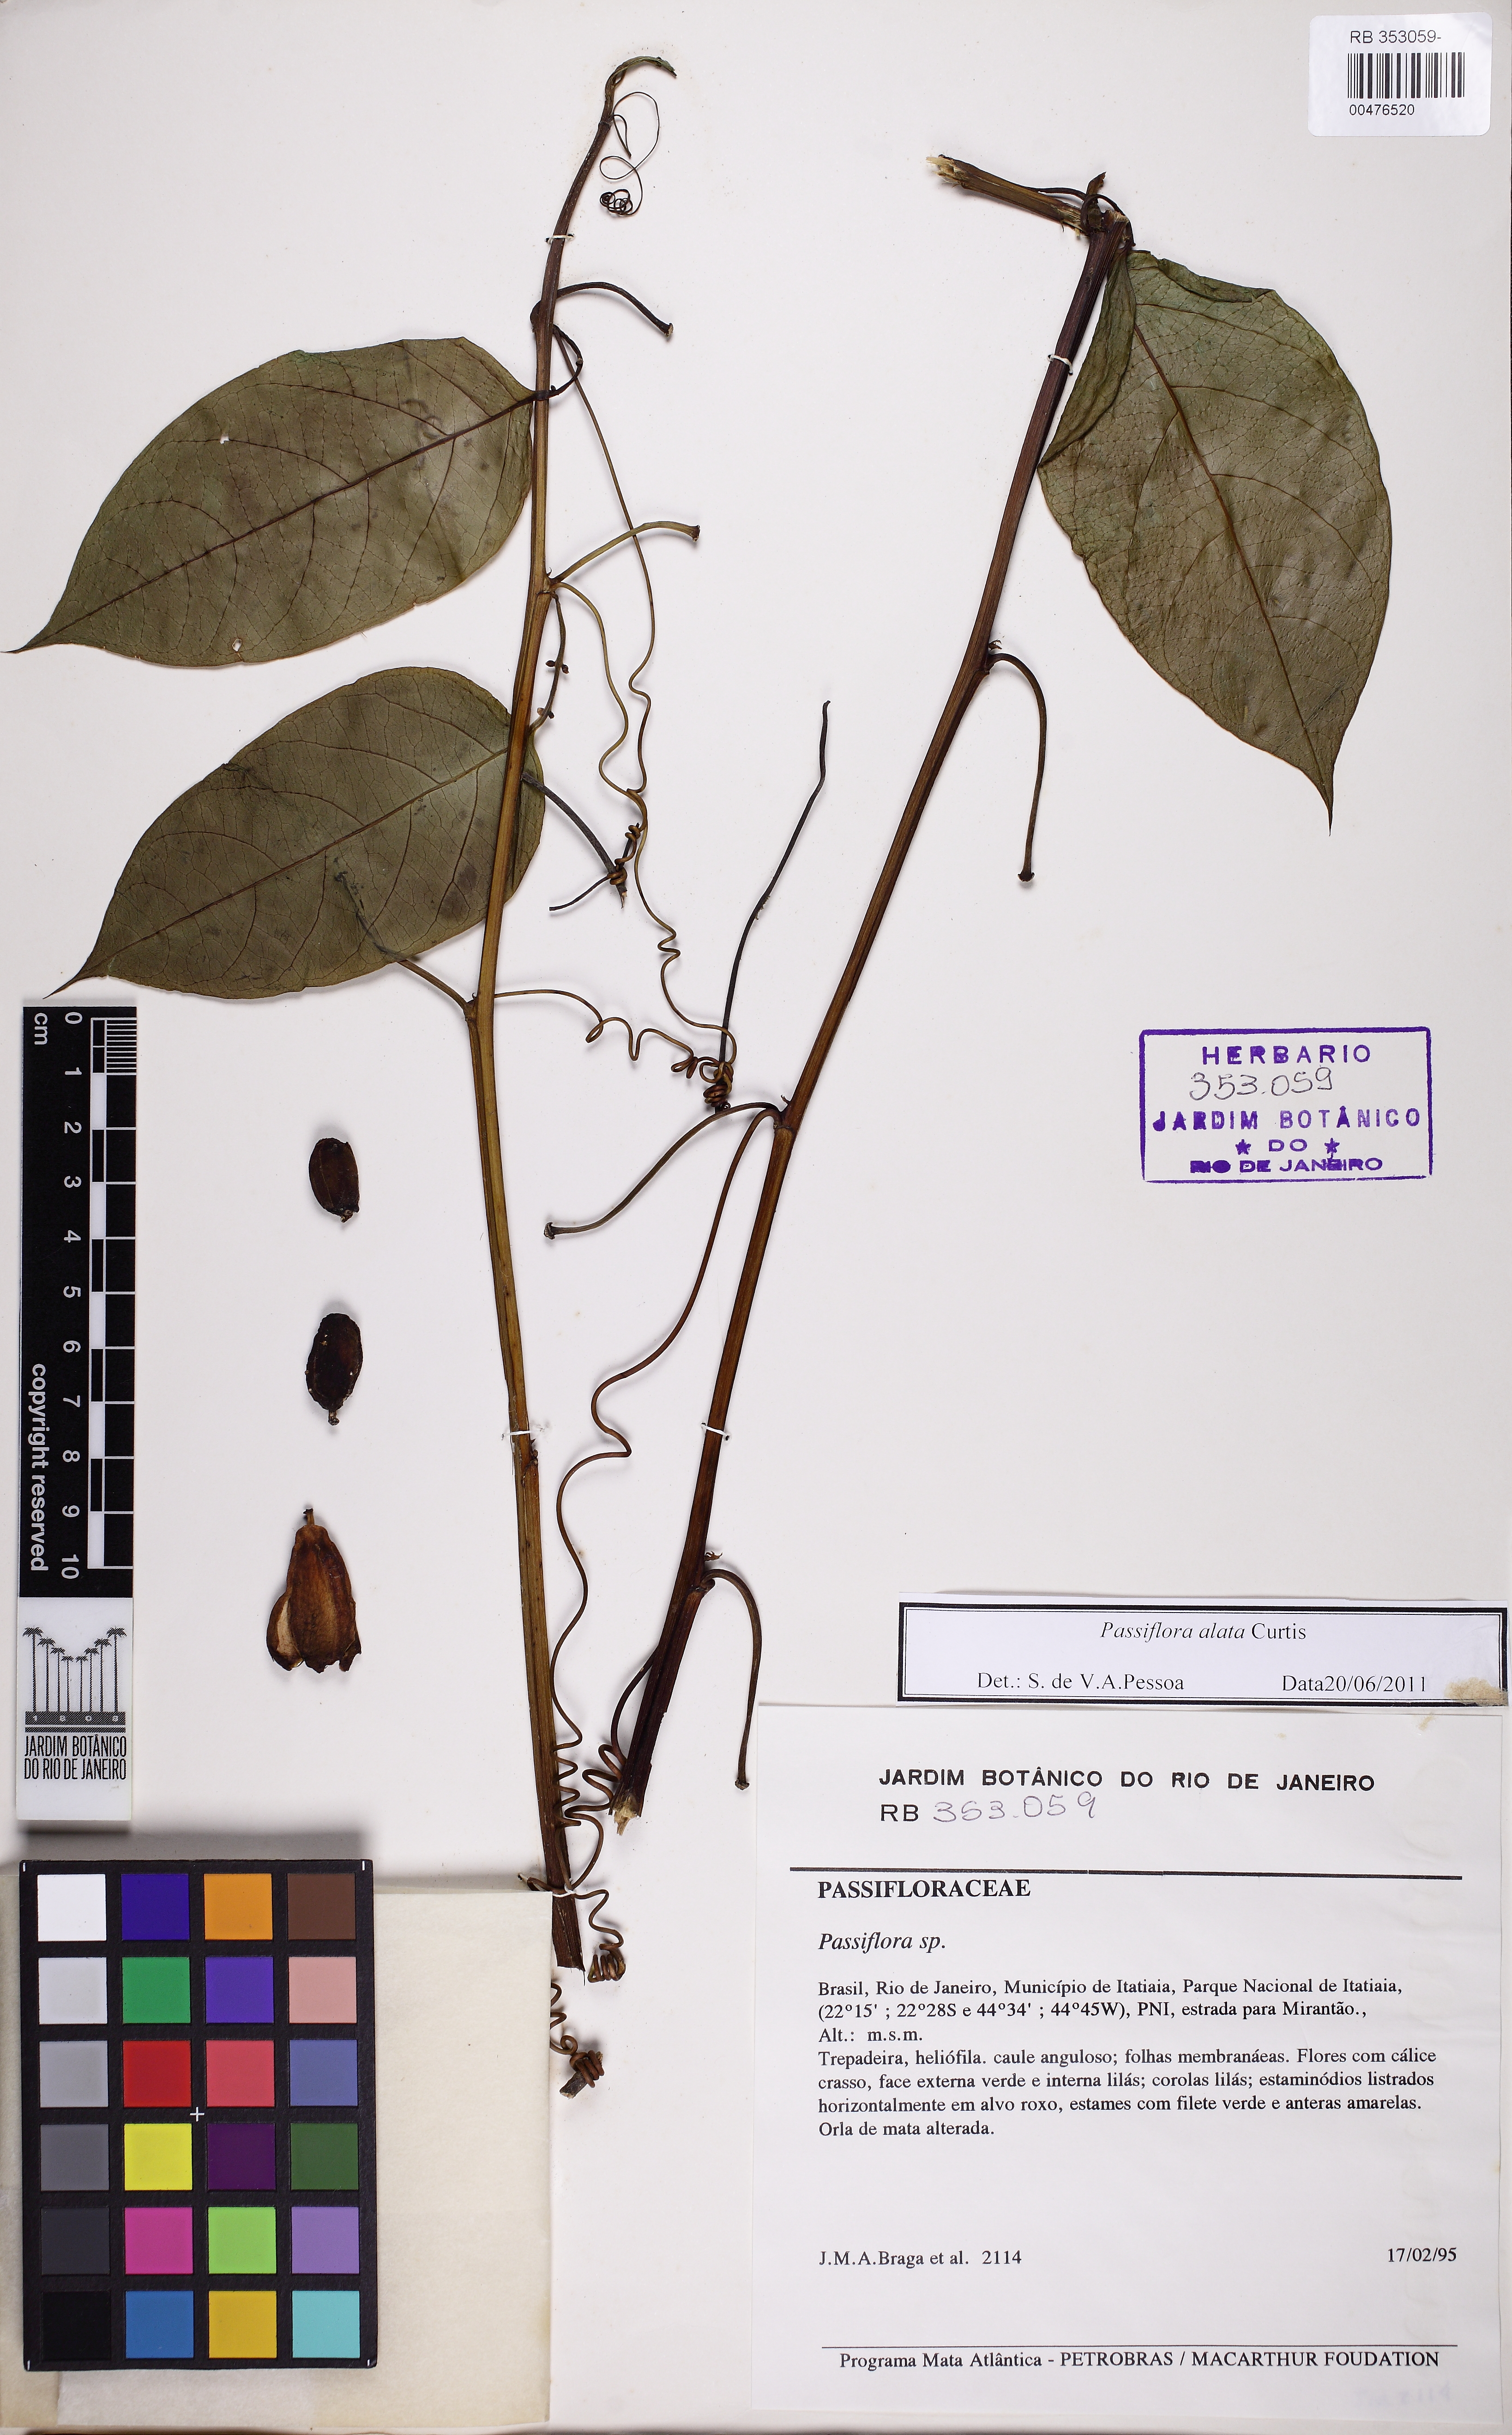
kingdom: Plantae
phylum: Tracheophyta
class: Magnoliopsida
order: Malpighiales
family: Passifloraceae
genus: Passiflora
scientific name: Passiflora alata
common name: Wing-stemmed passion flower
